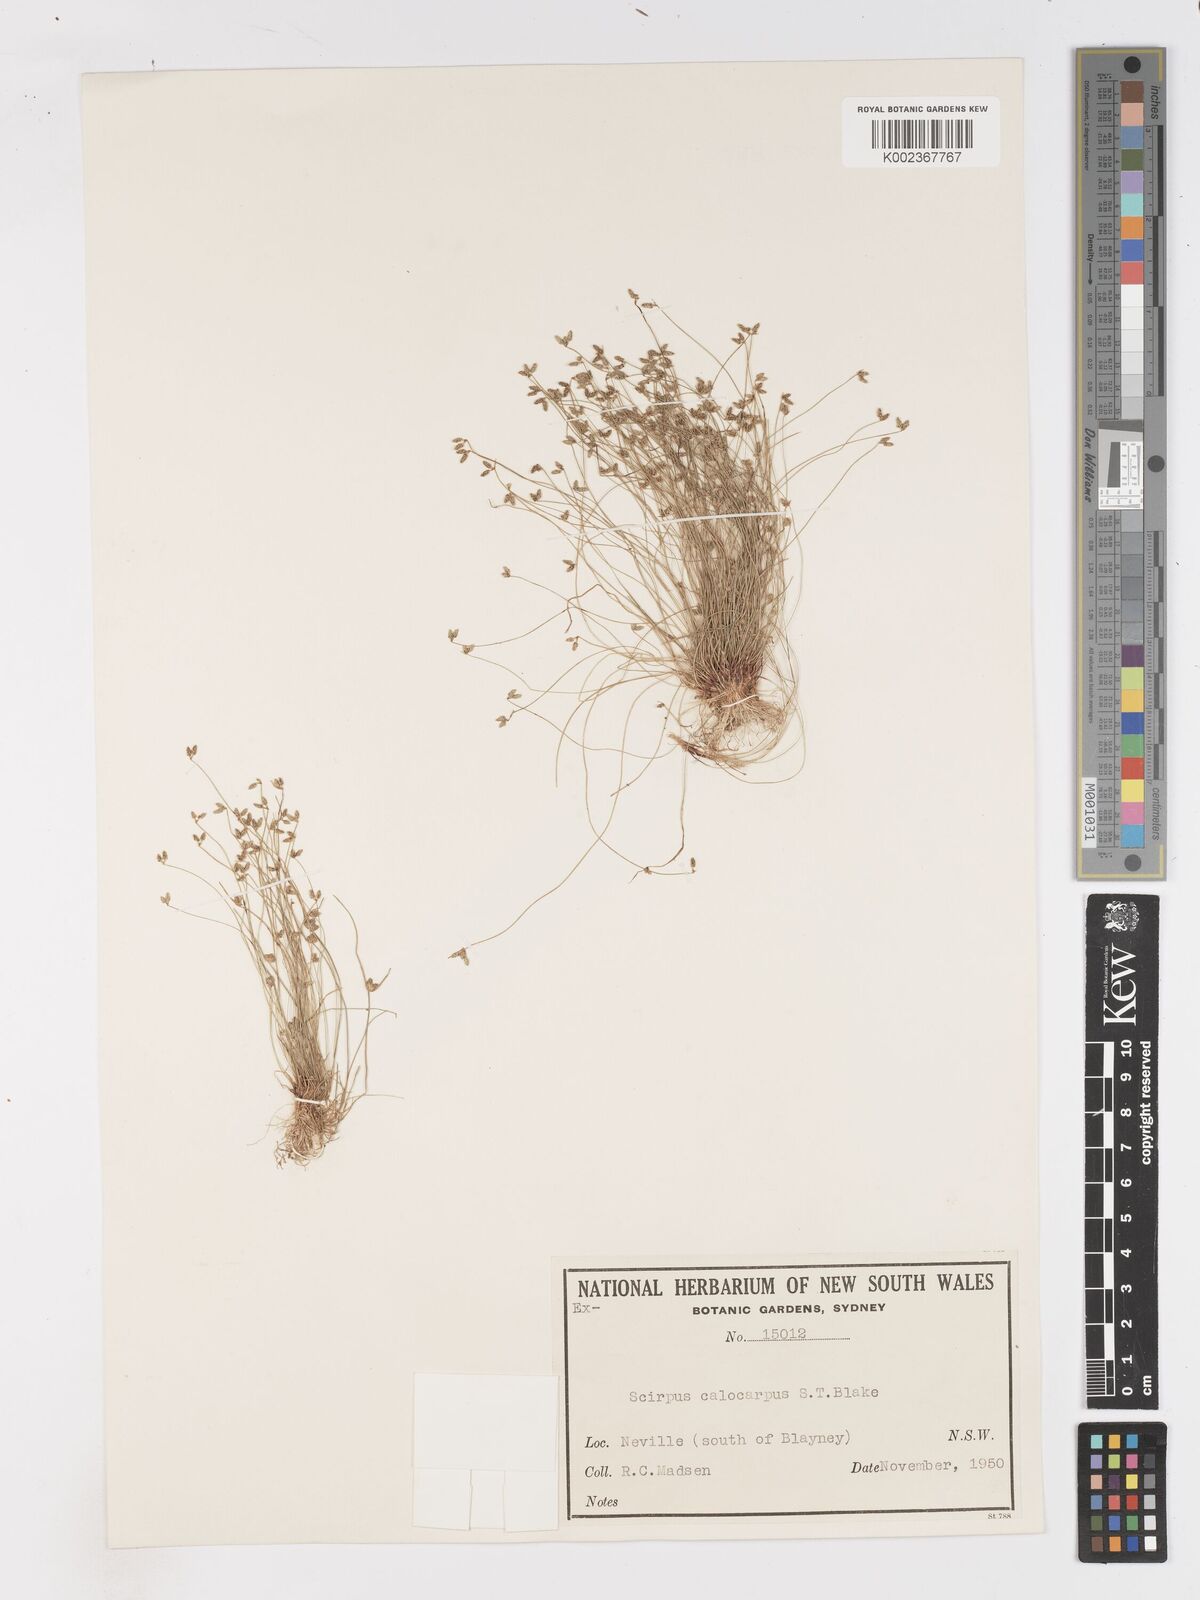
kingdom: Plantae
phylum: Tracheophyta
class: Liliopsida
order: Poales
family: Cyperaceae
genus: Isolepis
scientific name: Isolepis multicaulis
